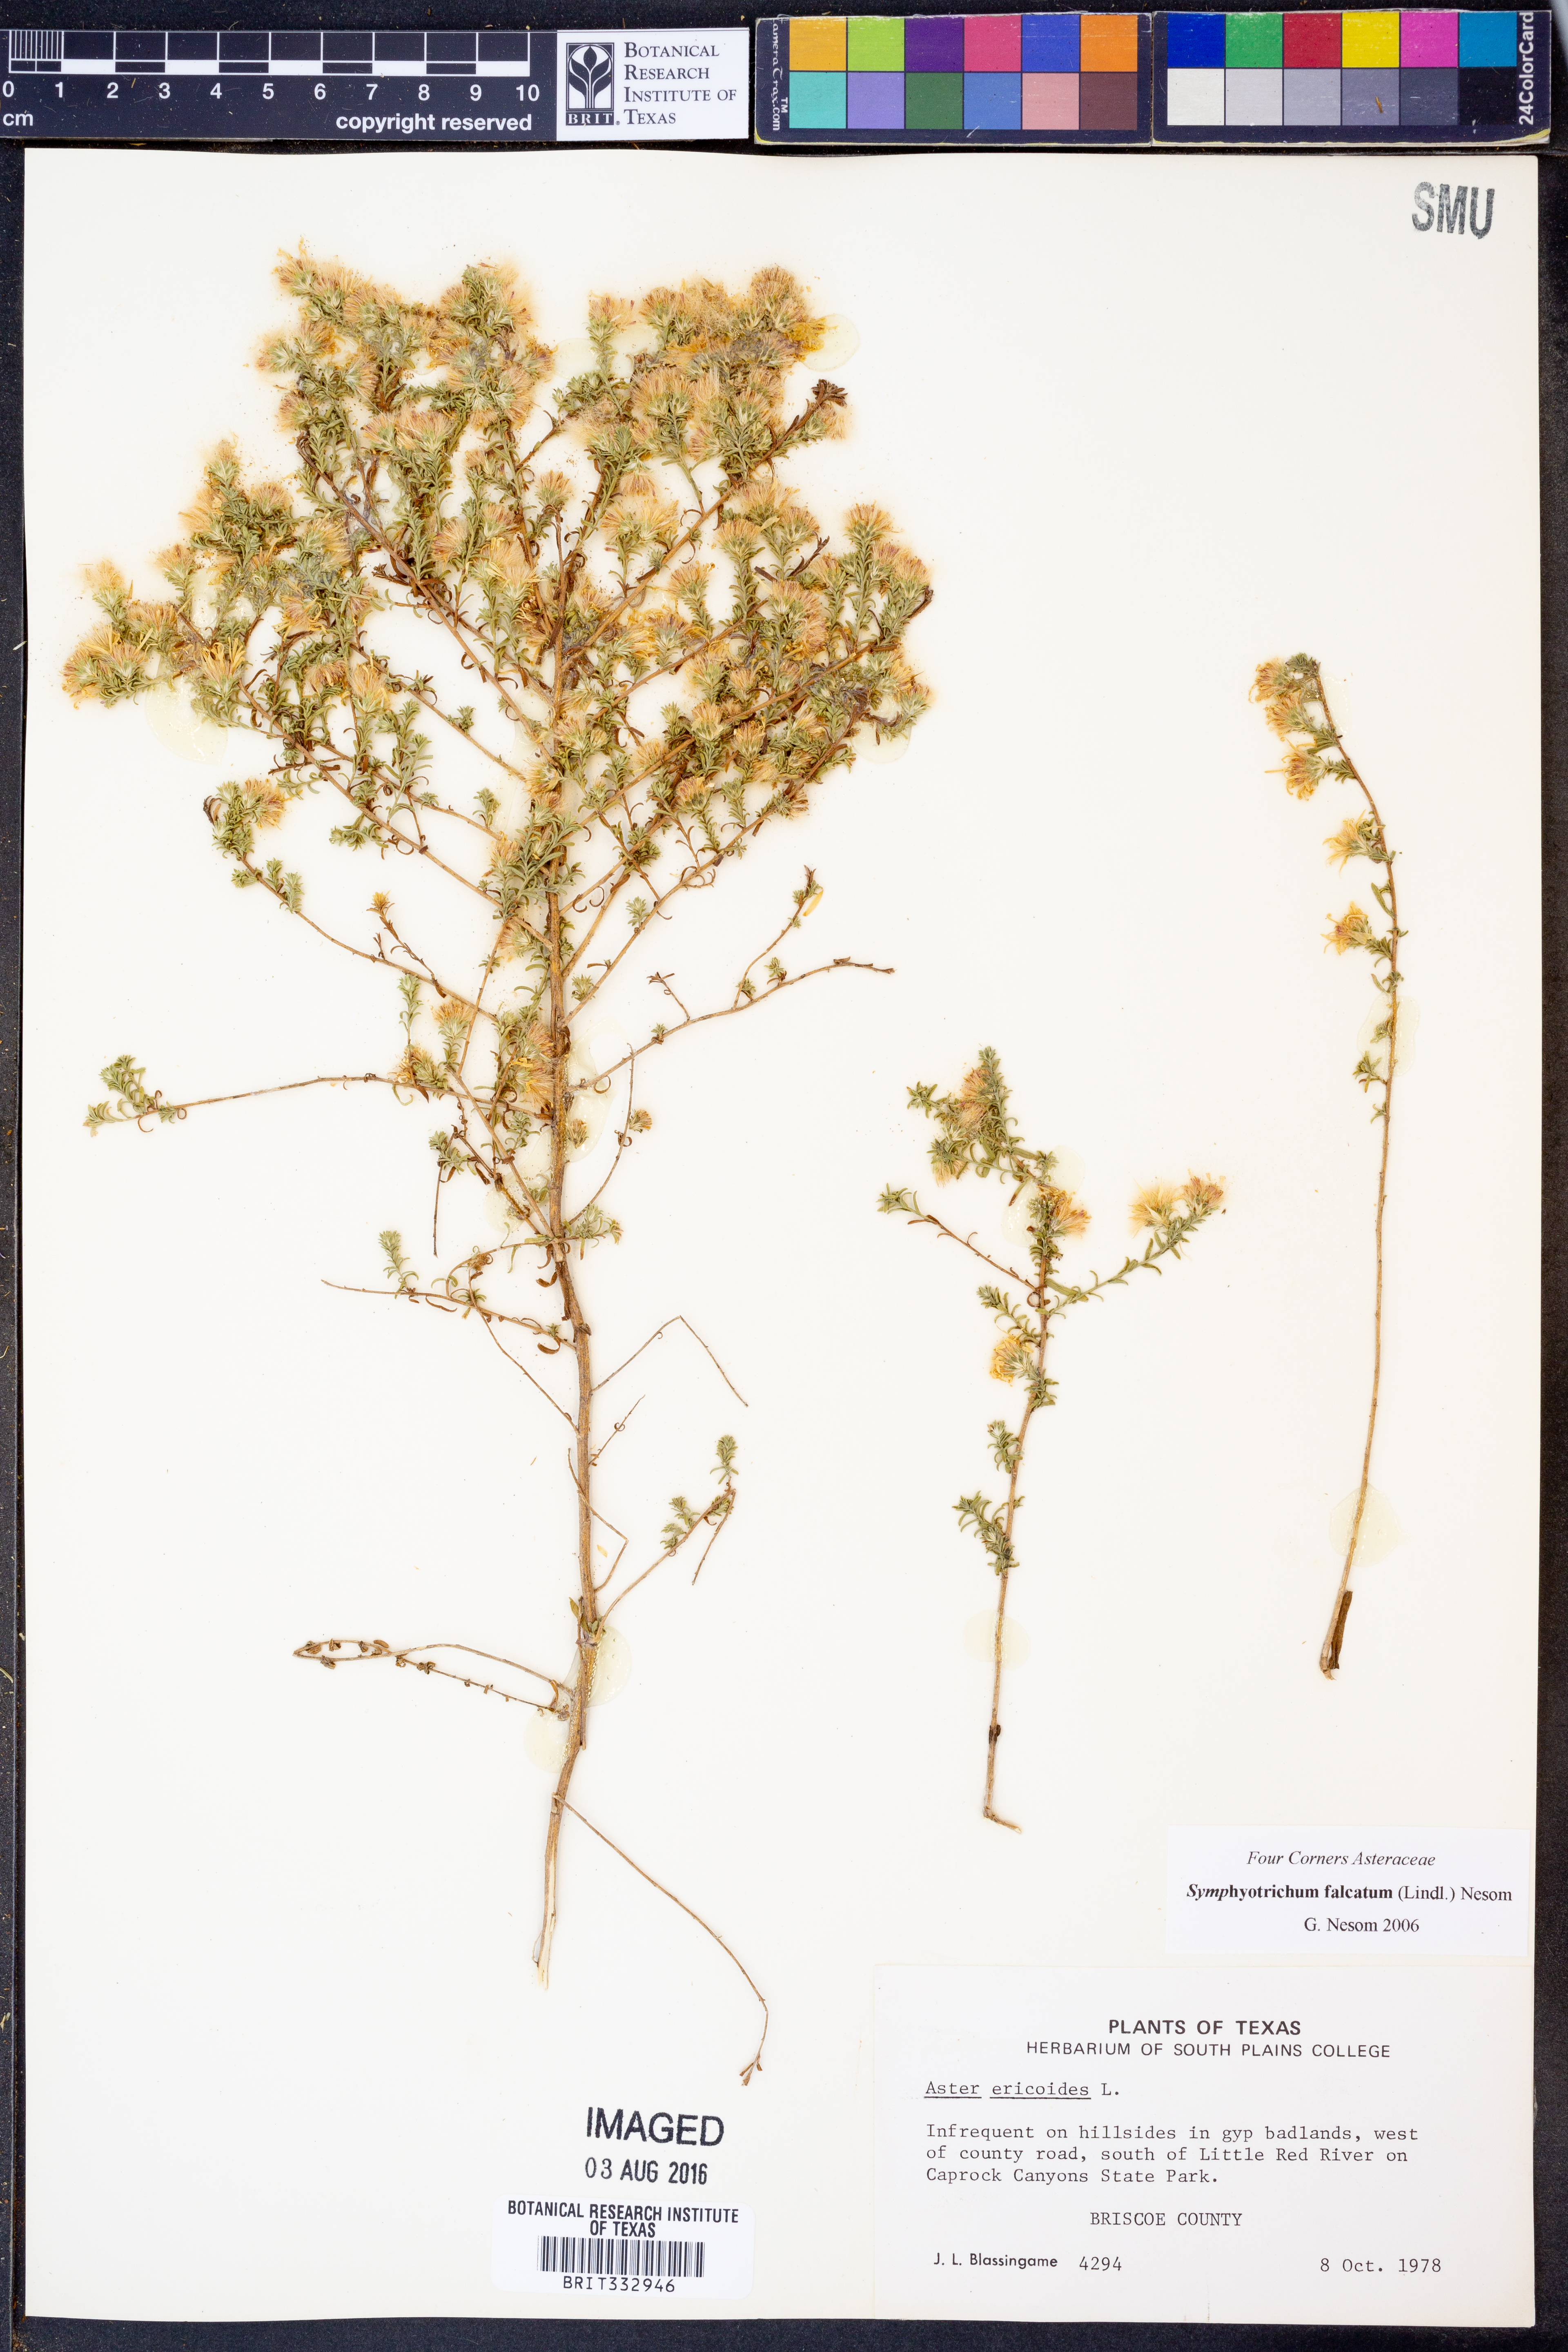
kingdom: Plantae
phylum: Tracheophyta
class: Magnoliopsida
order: Asterales
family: Asteraceae
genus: Symphyotrichum
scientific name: Symphyotrichum falcatum
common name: Creeping white prairie aster
